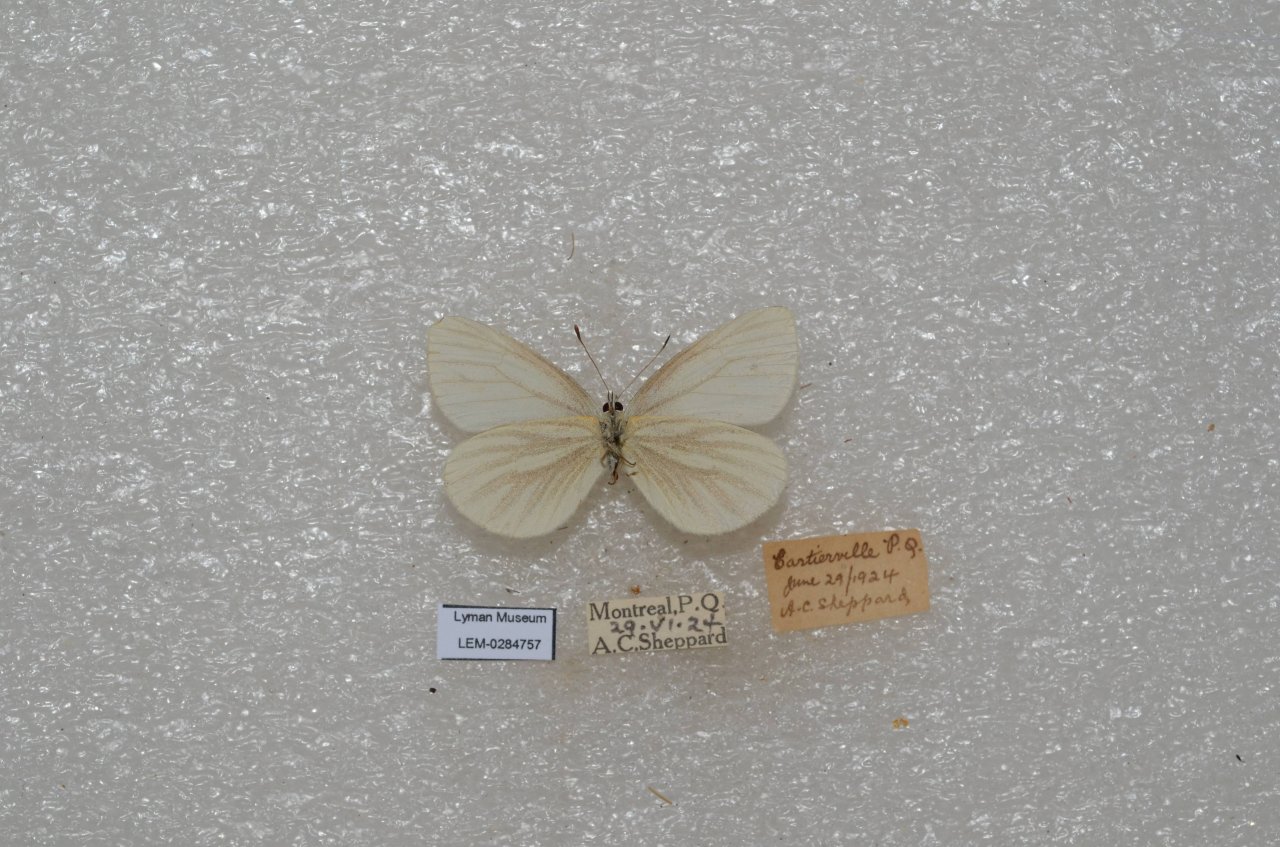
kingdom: Animalia
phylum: Arthropoda
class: Insecta
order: Lepidoptera
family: Pieridae
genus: Pieris
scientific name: Pieris virginiensis
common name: West Virginia White
